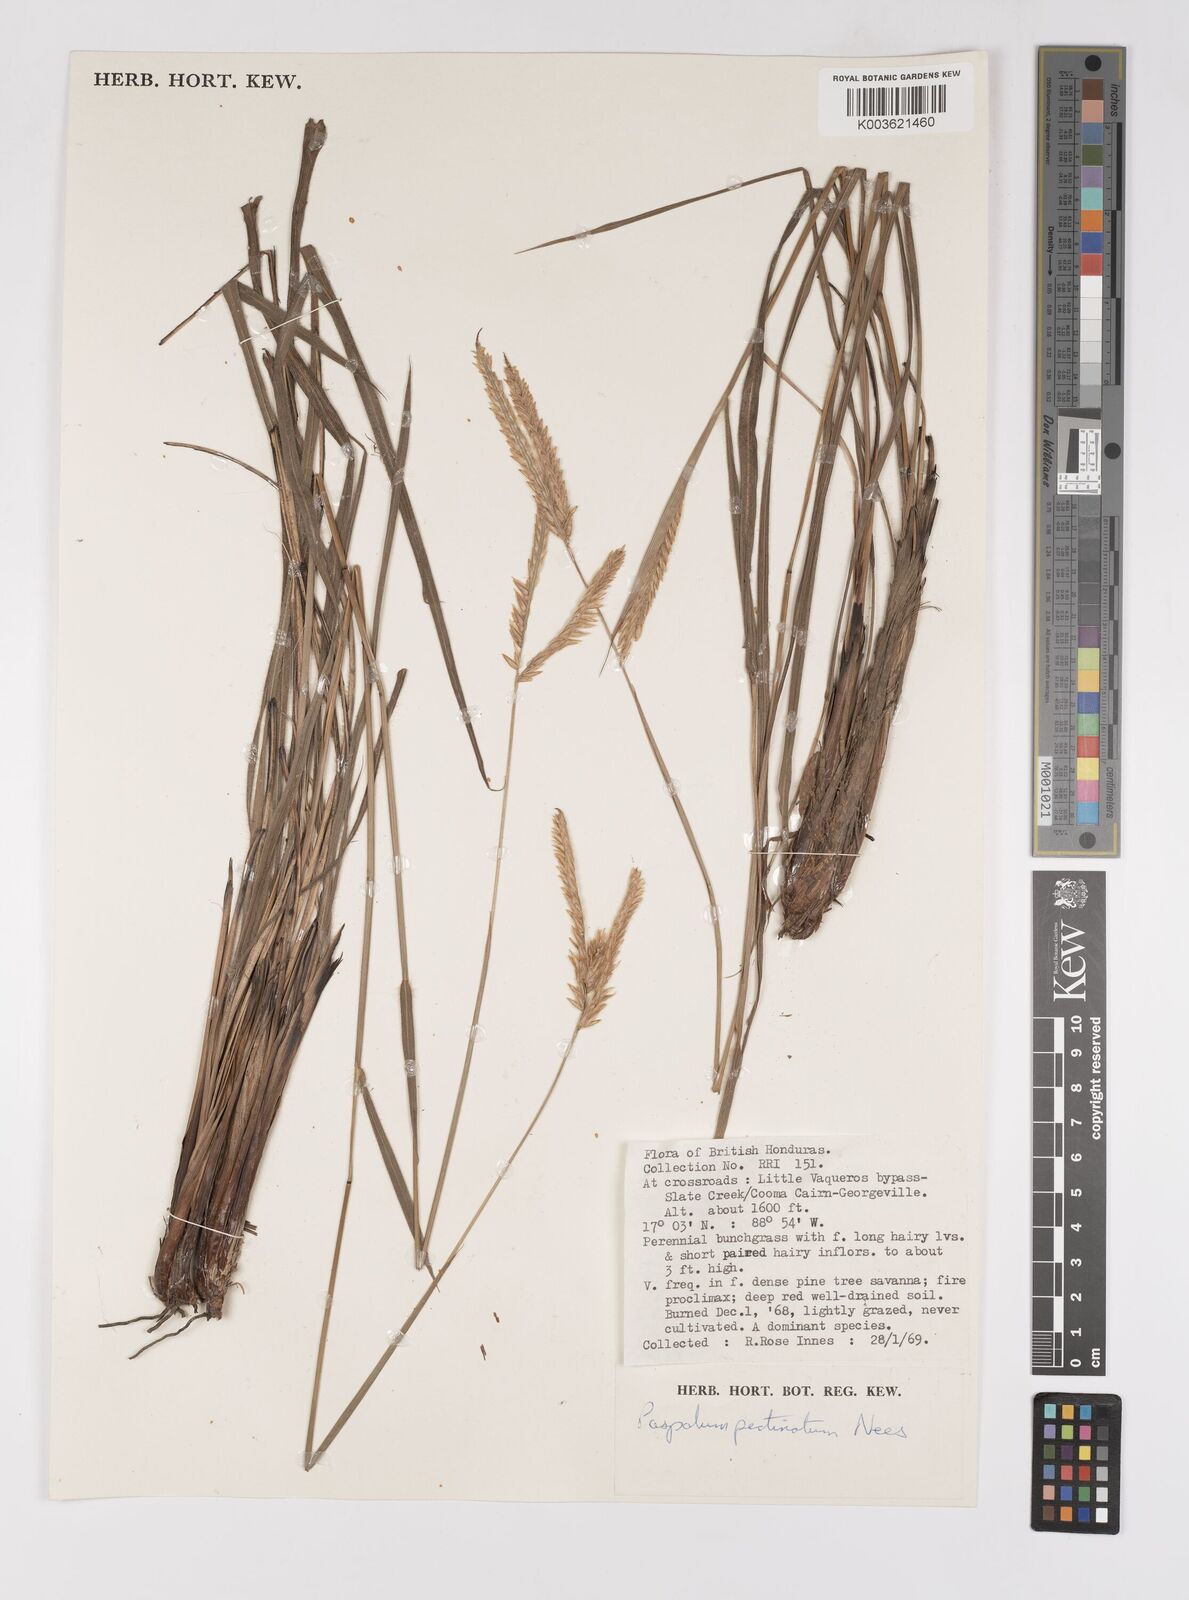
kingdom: Plantae
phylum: Tracheophyta
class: Liliopsida
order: Poales
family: Poaceae
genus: Paspalum
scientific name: Paspalum pectinatum
